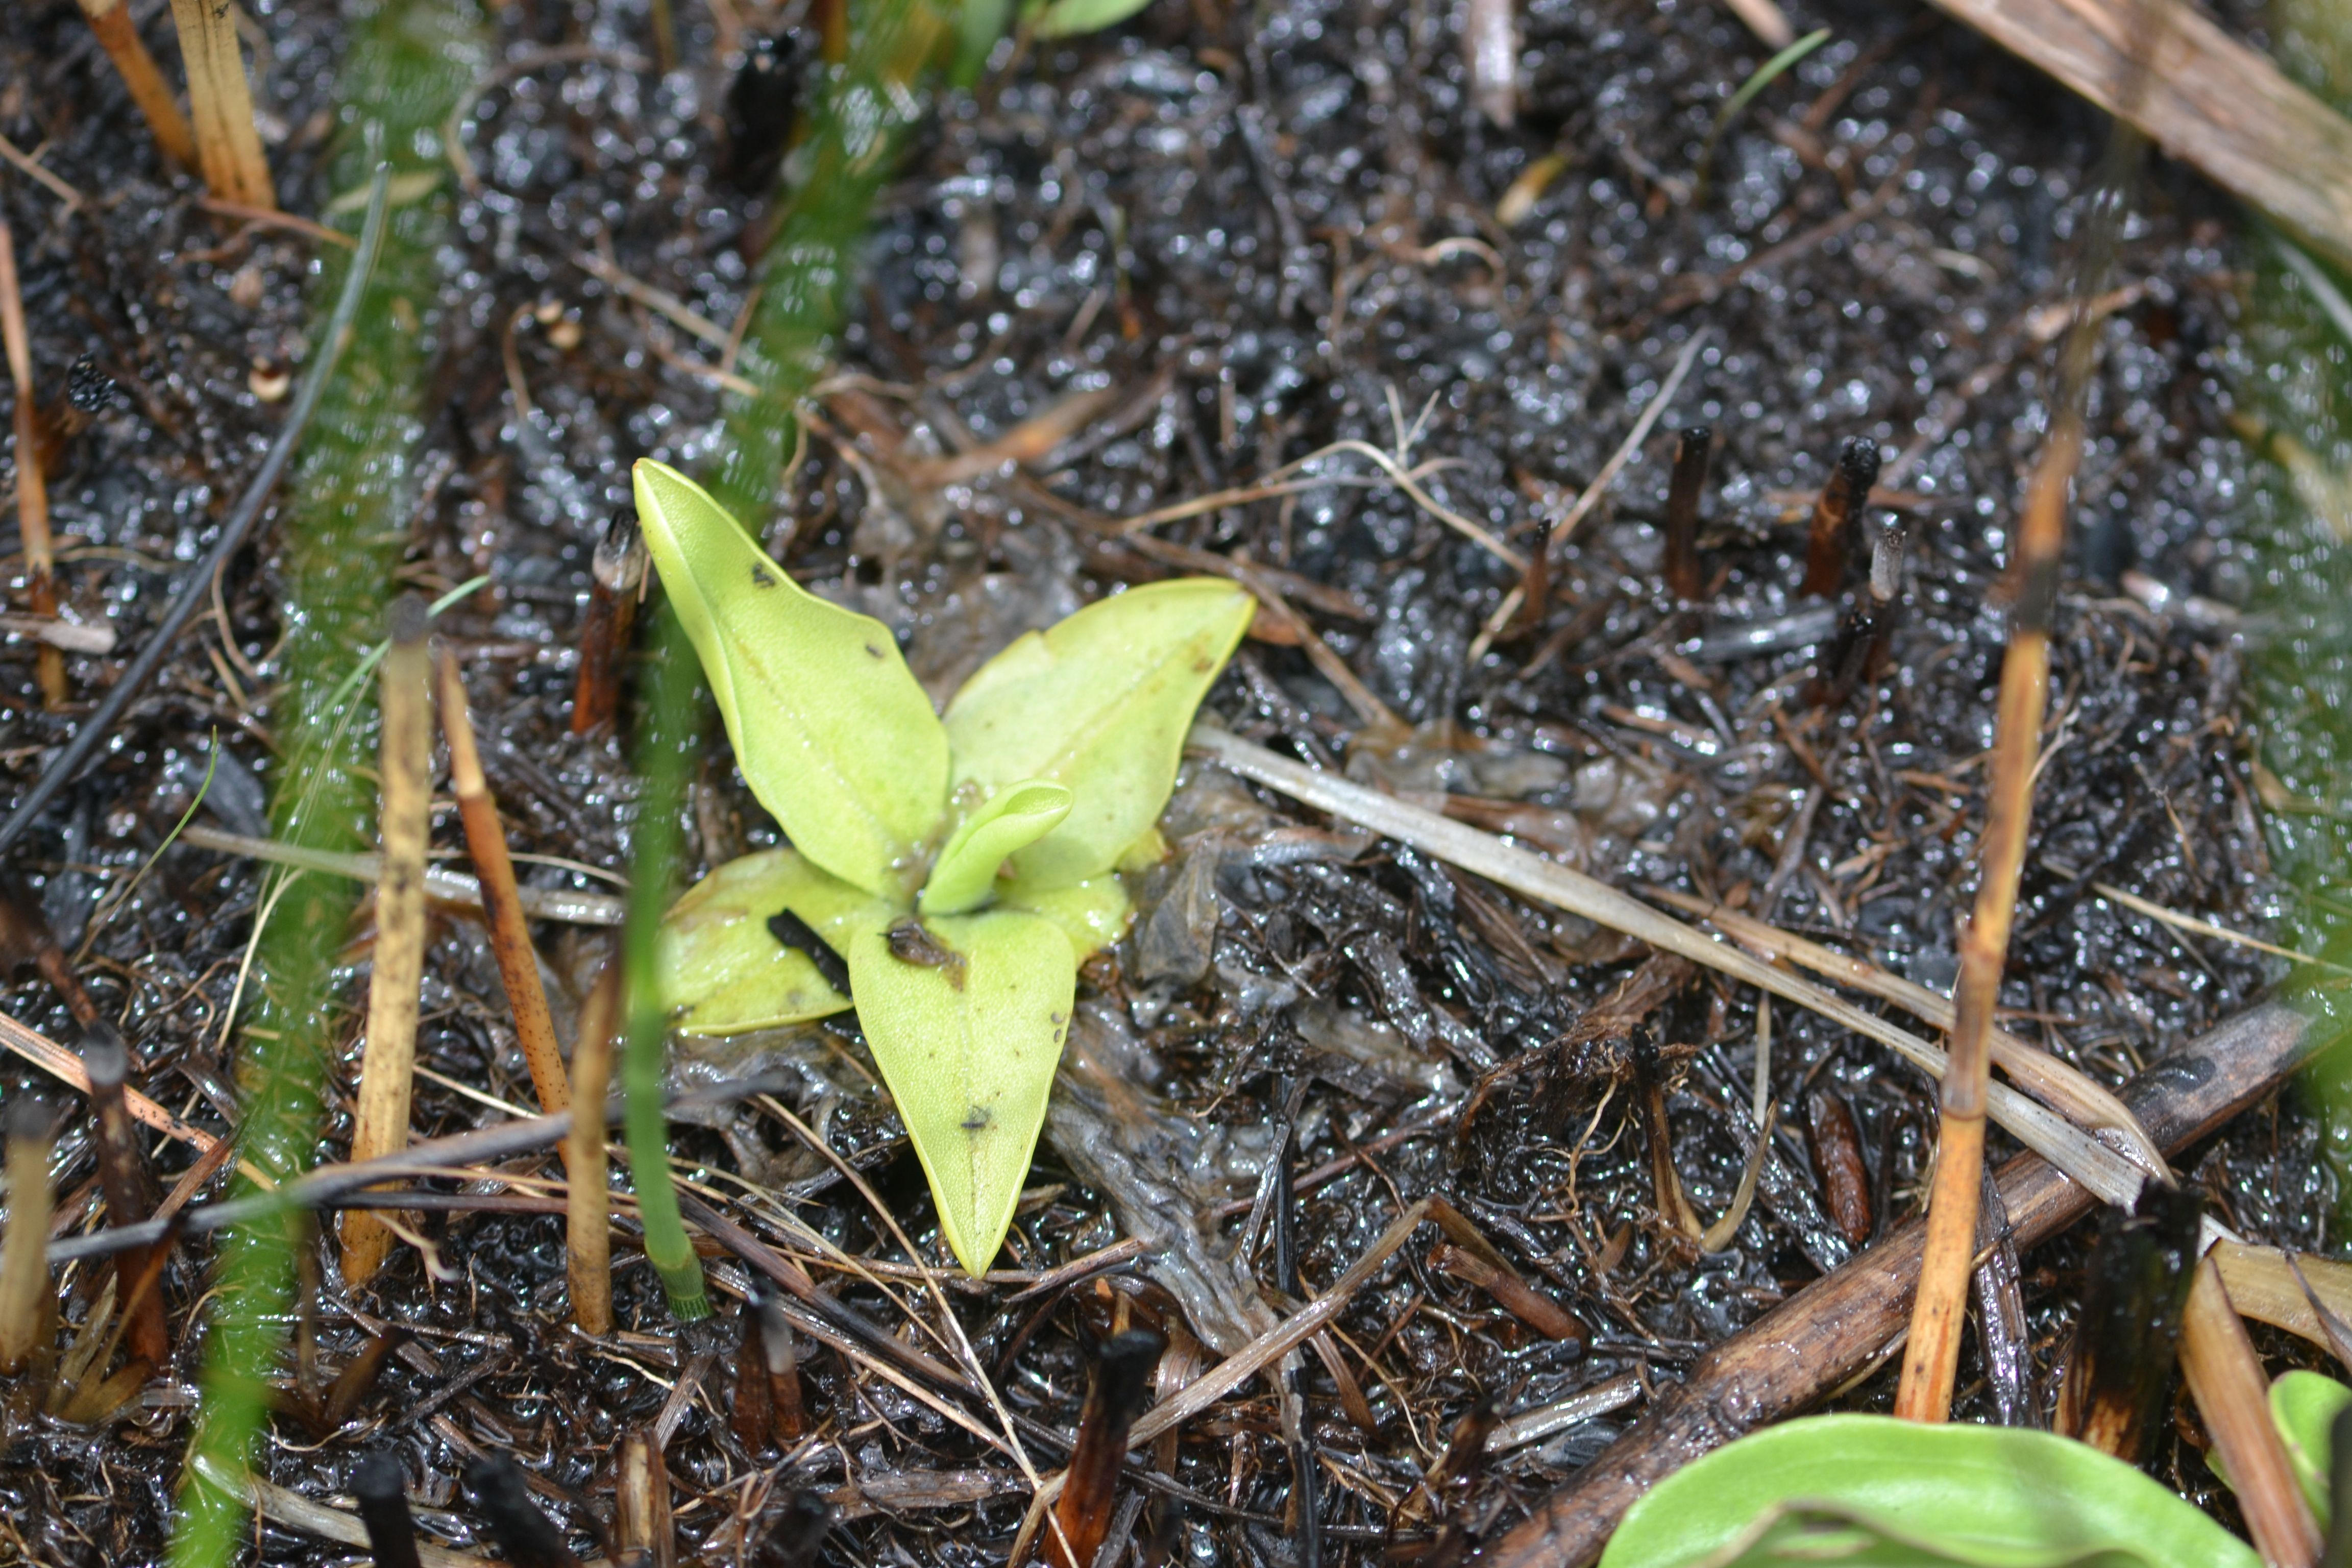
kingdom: Plantae
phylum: Tracheophyta
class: Magnoliopsida
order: Lamiales
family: Lentibulariaceae
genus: Pinguicula
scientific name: Pinguicula lutea
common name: Yellow Butterwort
